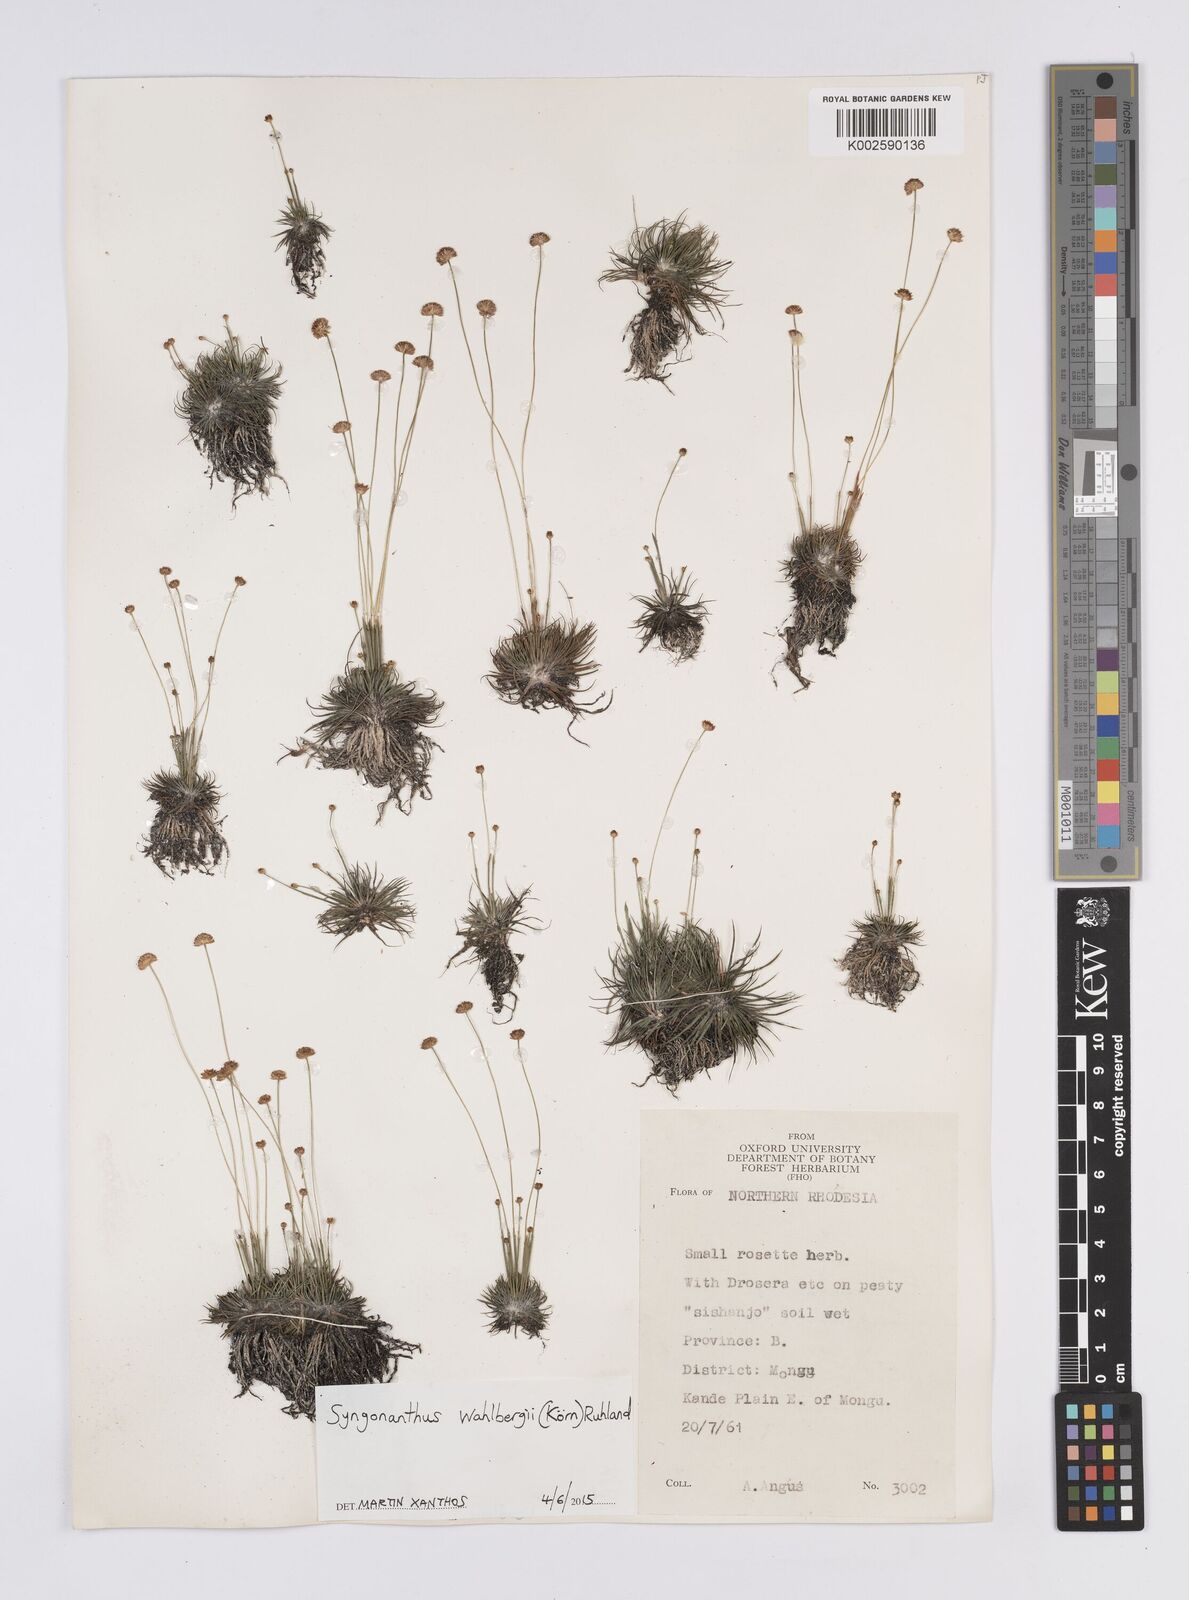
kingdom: Plantae
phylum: Tracheophyta
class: Liliopsida
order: Poales
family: Eriocaulaceae
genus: Syngonanthus
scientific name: Syngonanthus wahlbergii
